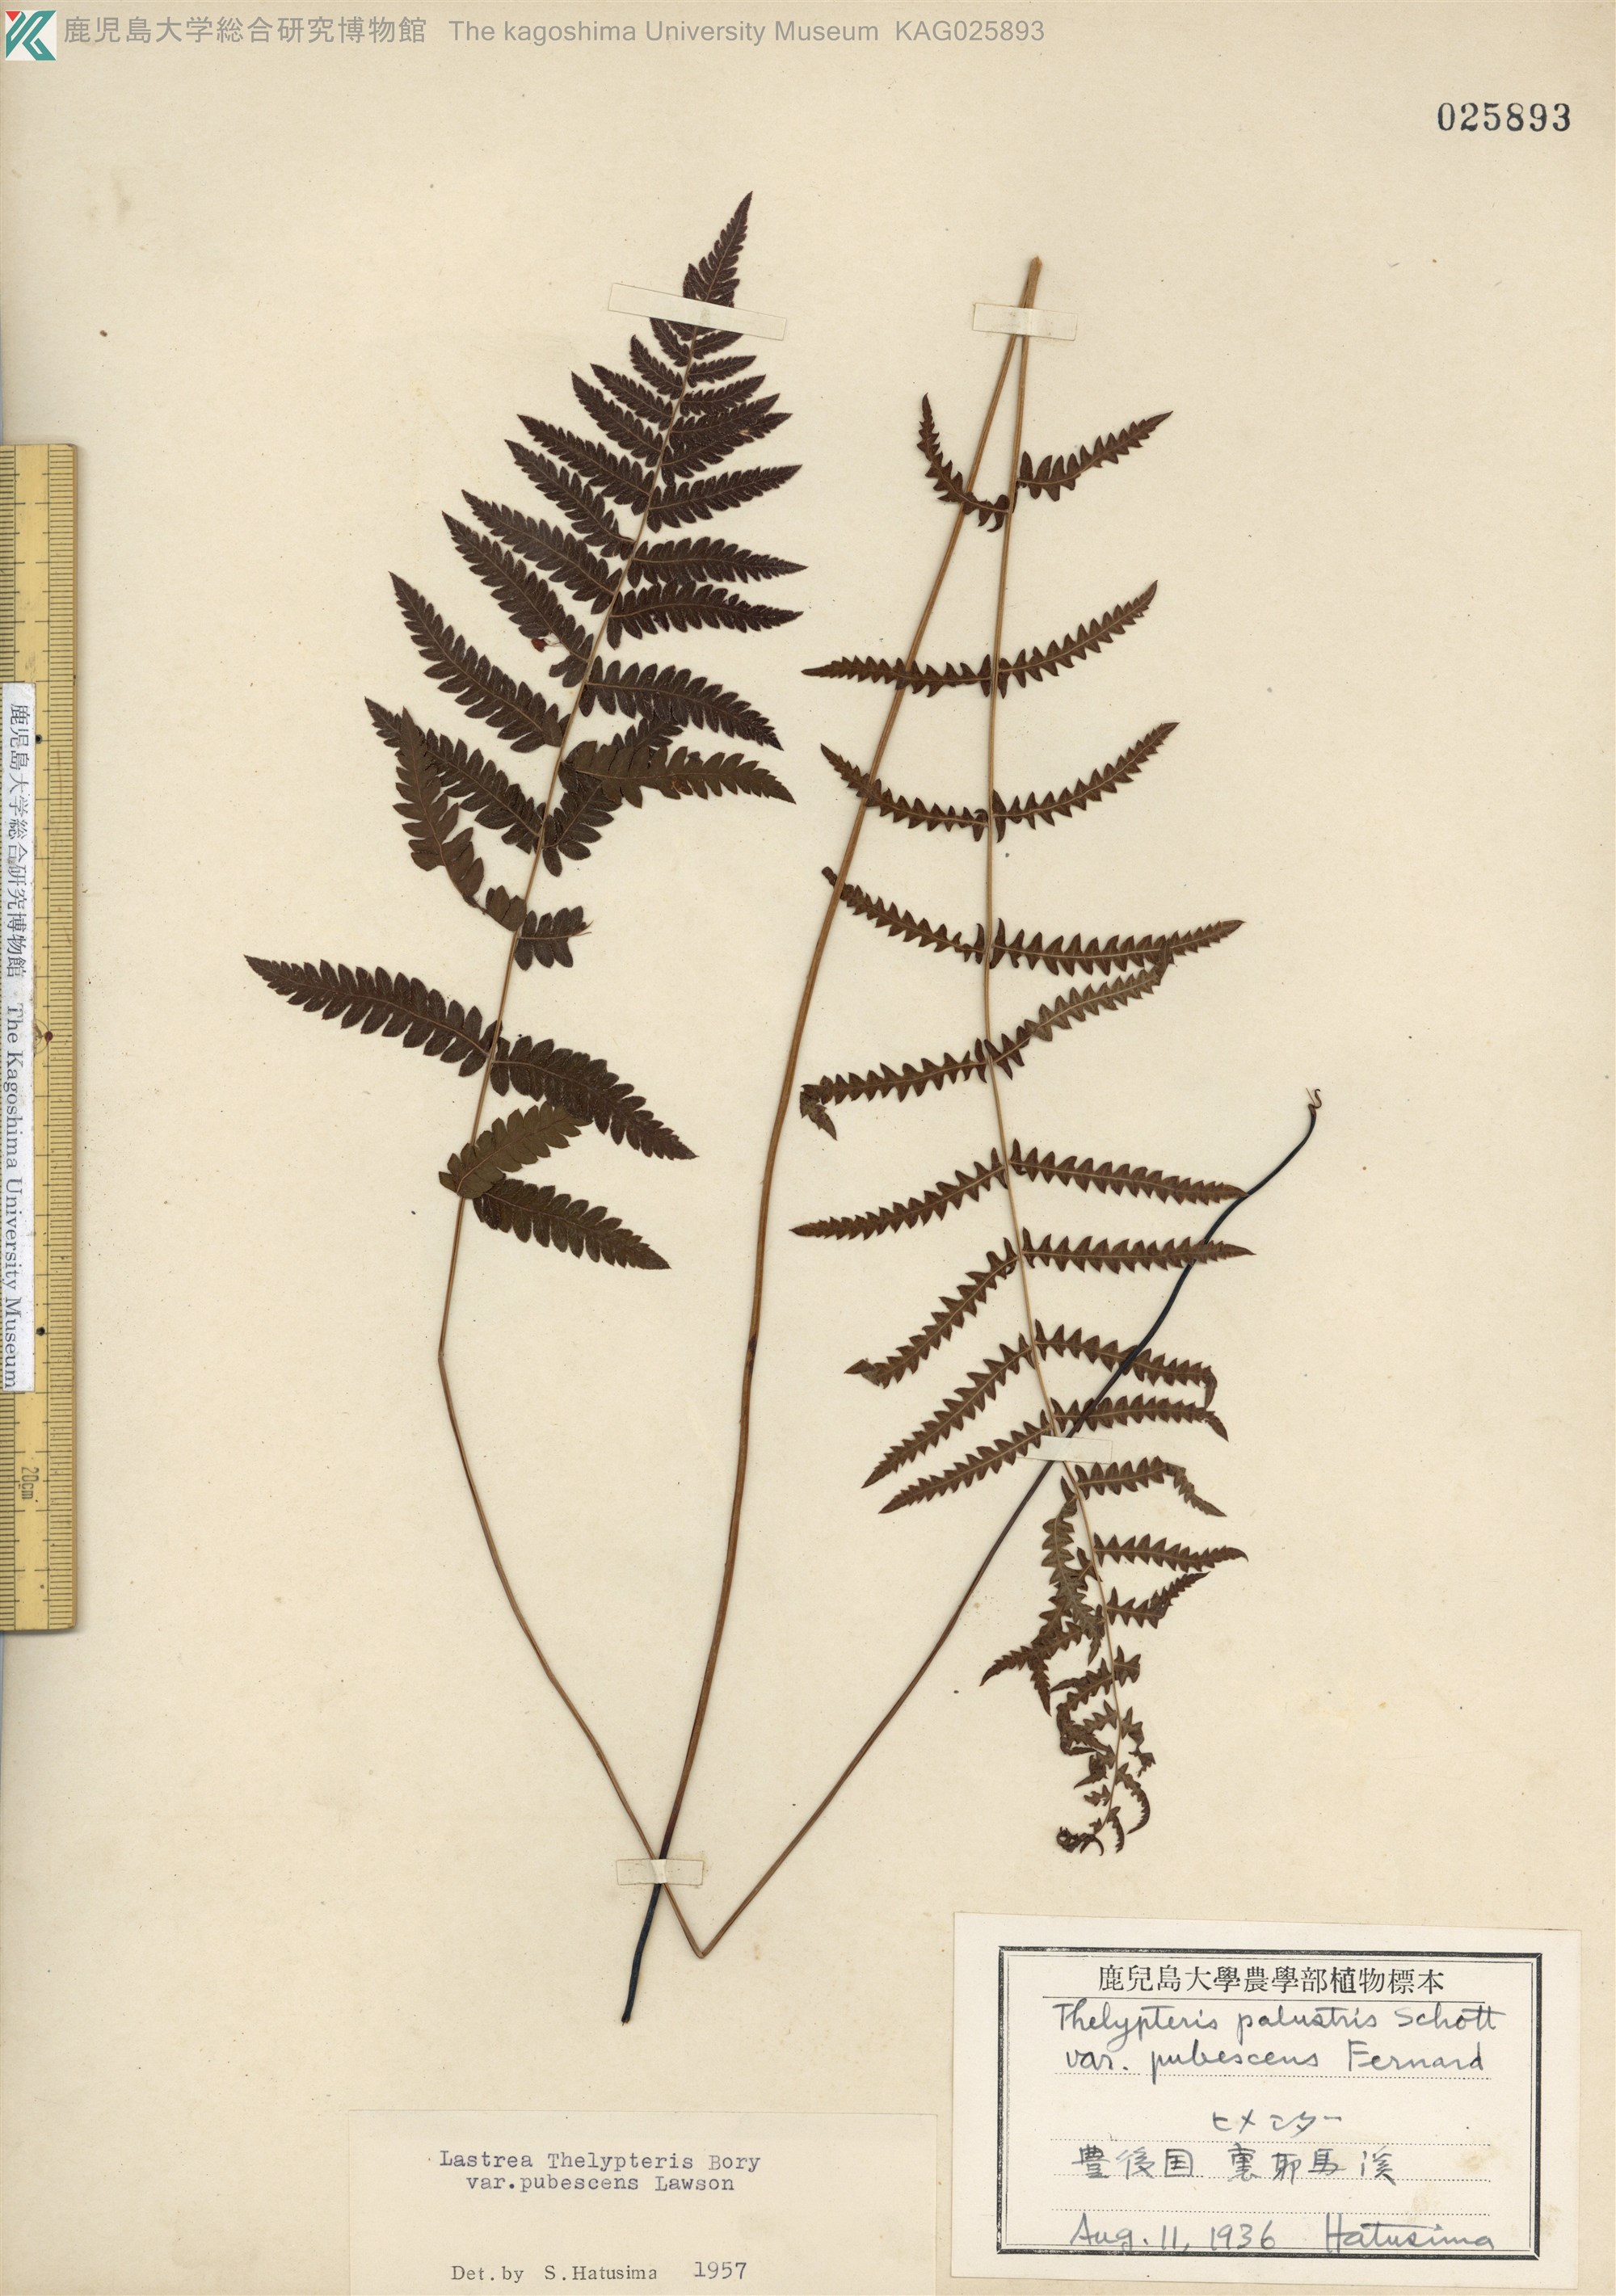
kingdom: Plantae
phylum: Tracheophyta
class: Polypodiopsida
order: Polypodiales
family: Thelypteridaceae
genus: Thelypteris
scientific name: Thelypteris palustris
